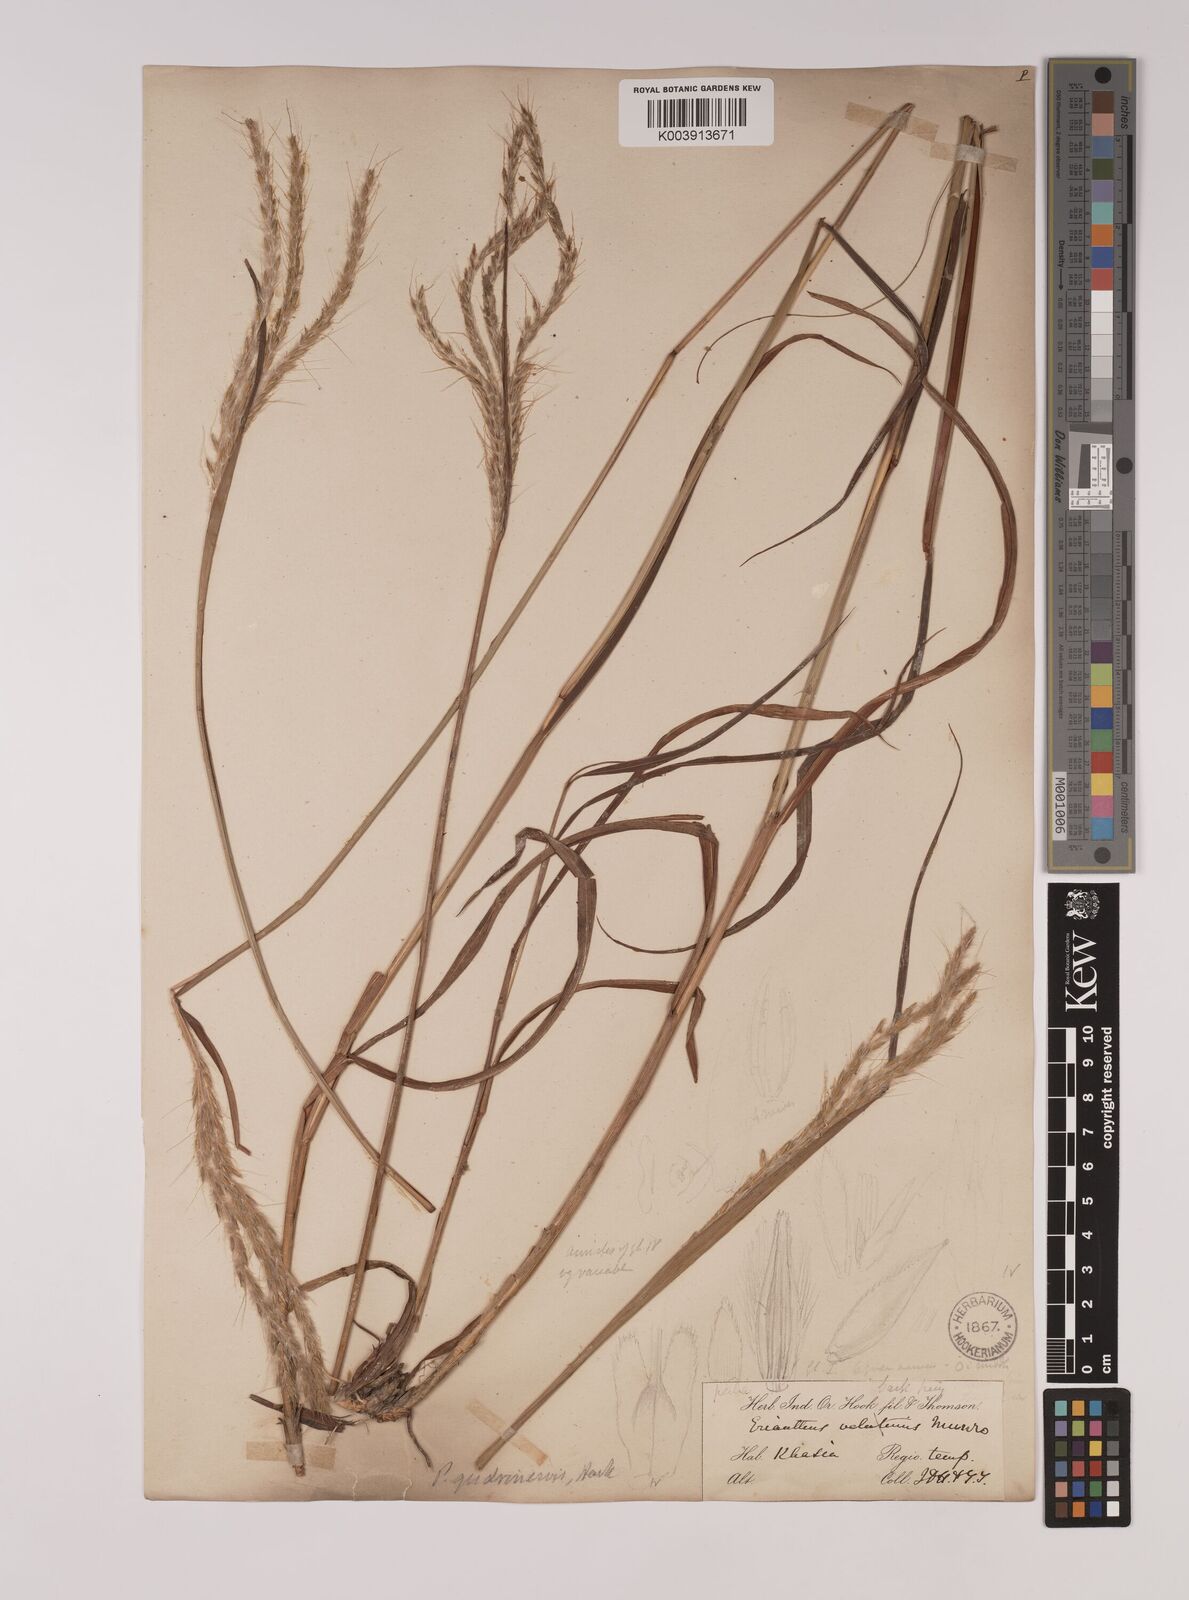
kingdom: Plantae
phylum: Tracheophyta
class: Liliopsida
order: Poales
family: Poaceae
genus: Pseudopogonatherum
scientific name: Pseudopogonatherum quadrinerve
